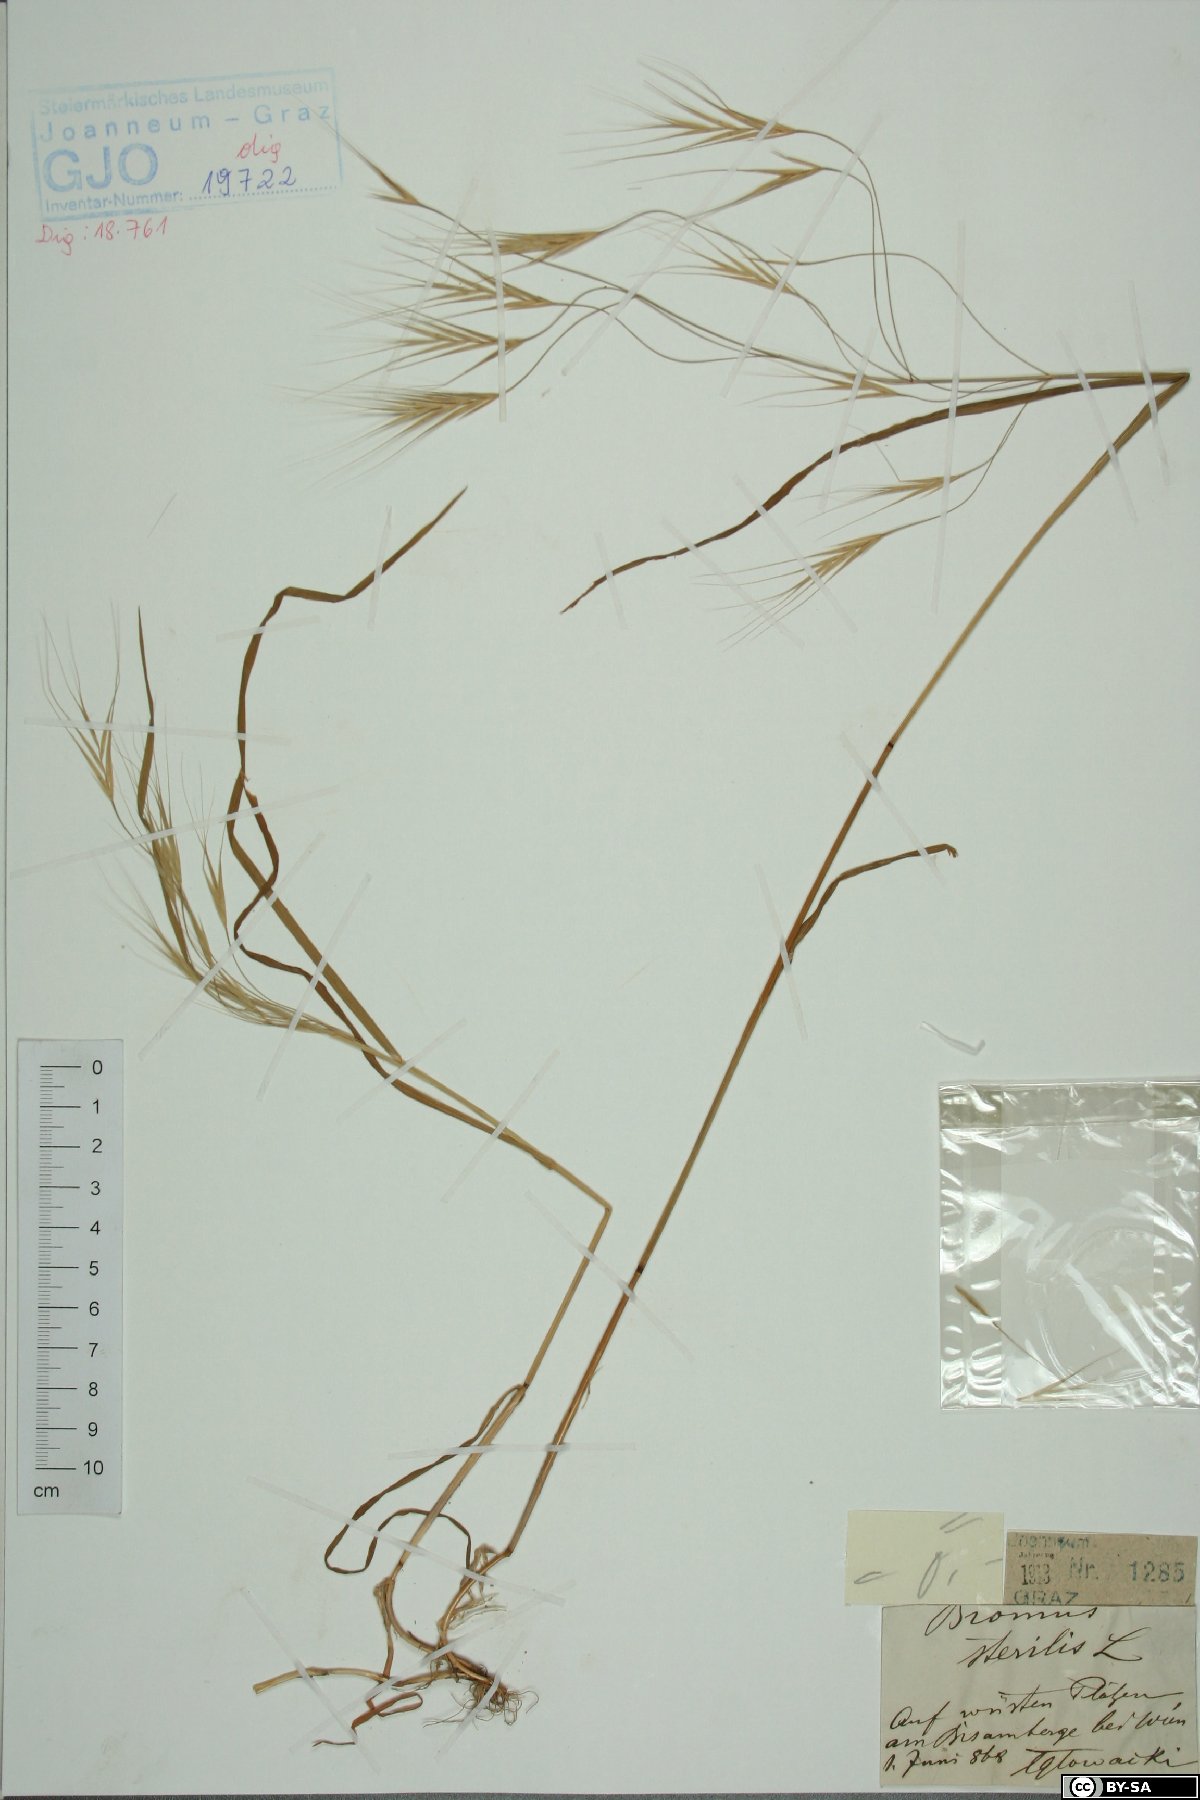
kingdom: Plantae
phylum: Tracheophyta
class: Liliopsida
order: Poales
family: Poaceae
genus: Bromus
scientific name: Bromus sterilis
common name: Poverty brome
